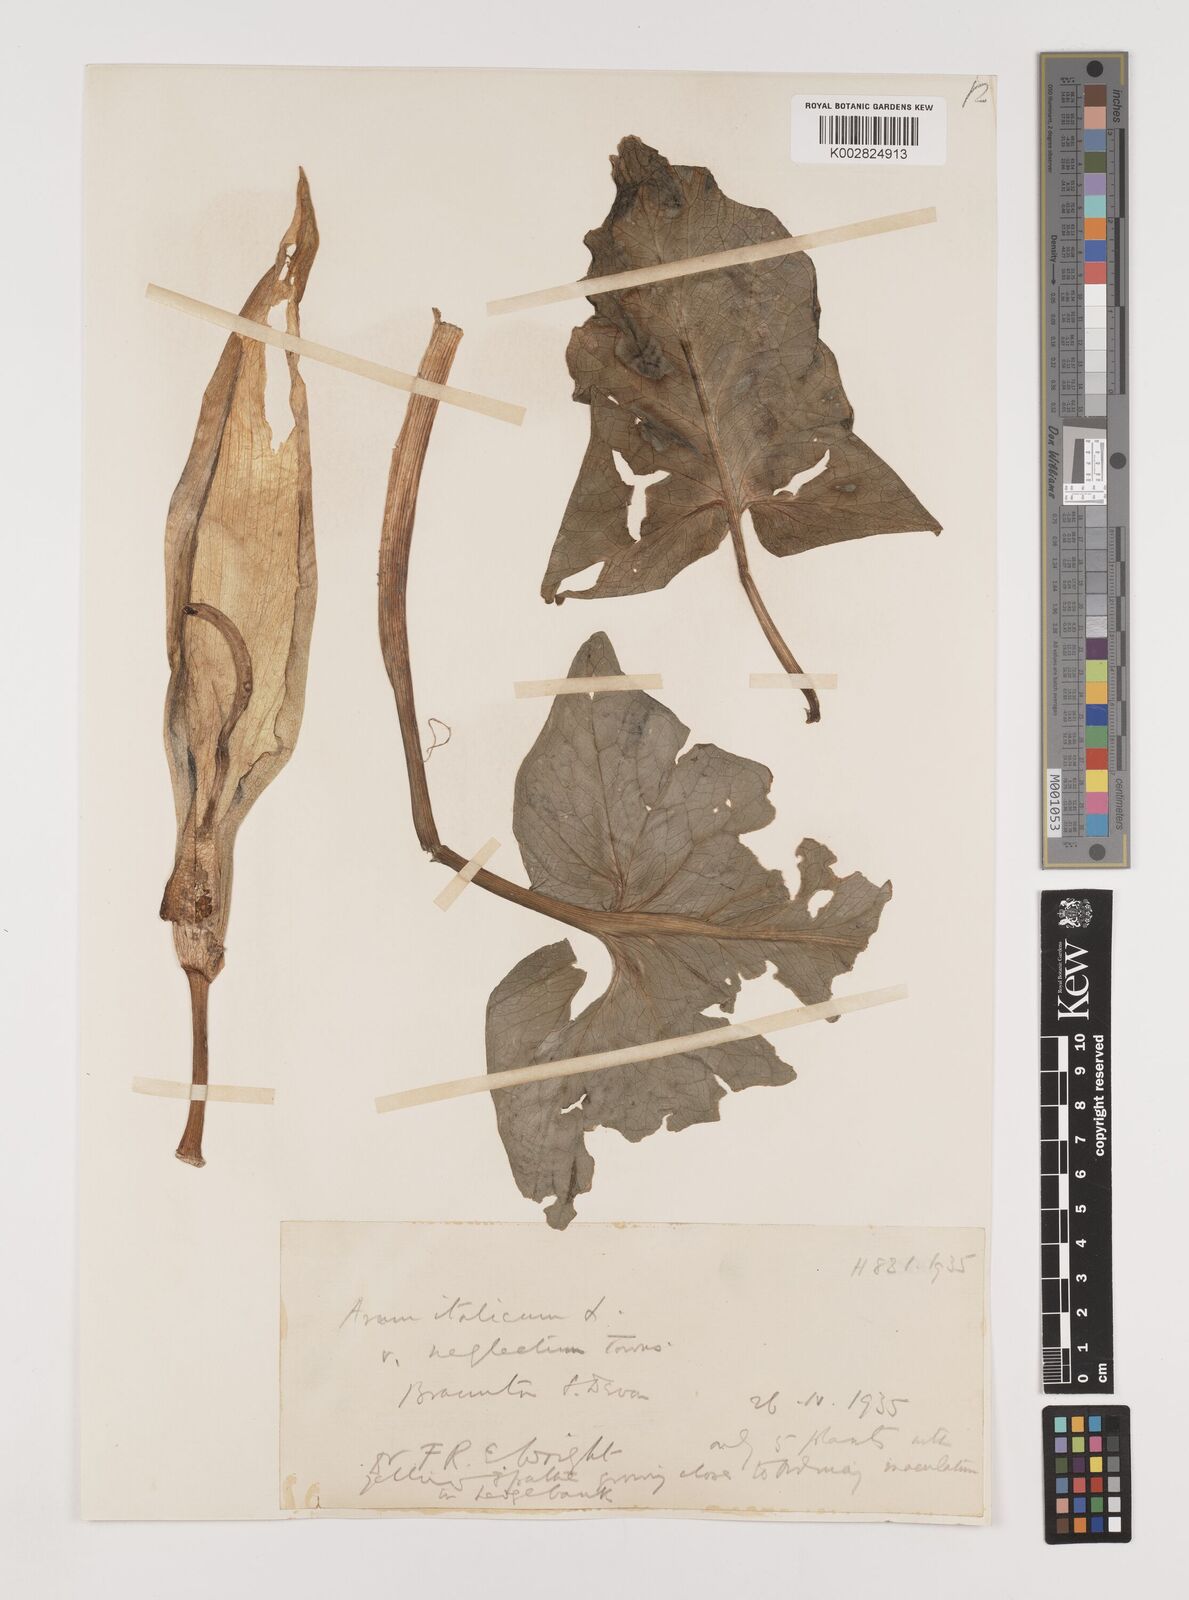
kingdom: Plantae
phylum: Tracheophyta
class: Liliopsida
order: Alismatales
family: Araceae
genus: Arum
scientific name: Arum italicum
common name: Italian lords-and-ladies
